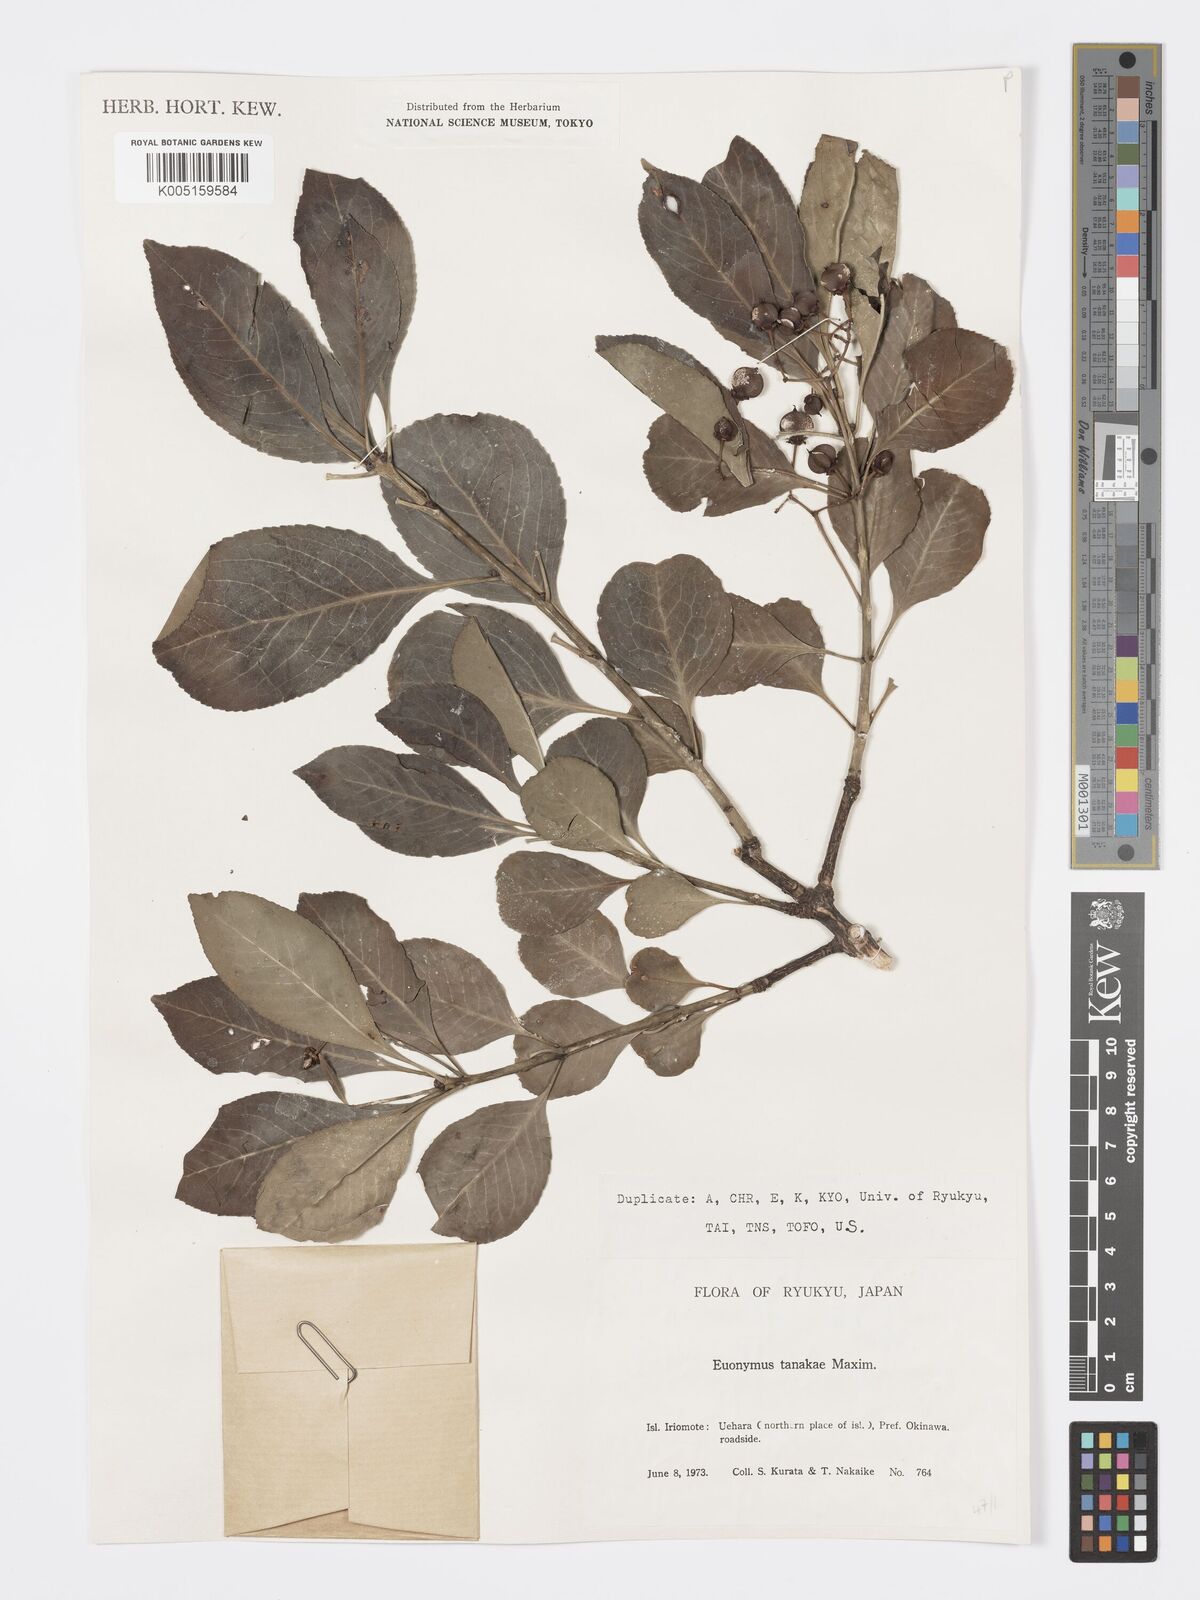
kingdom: Plantae
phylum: Tracheophyta
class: Magnoliopsida
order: Celastrales
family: Celastraceae
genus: Euonymus
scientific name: Euonymus carnosus
